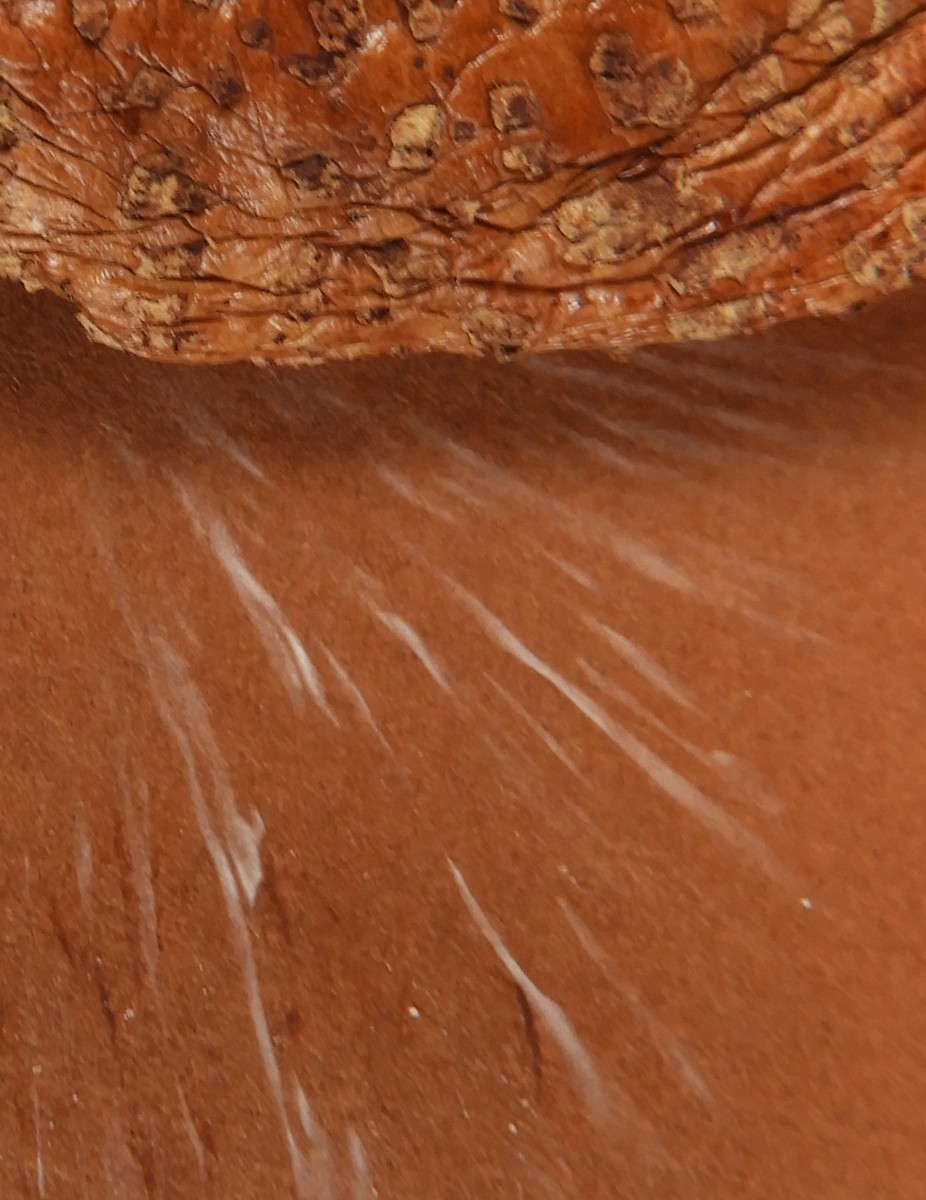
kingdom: Fungi
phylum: Basidiomycota
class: Agaricomycetes
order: Agaricales
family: Amanitaceae
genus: Amanita
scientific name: Amanita rubescens
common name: rødmende fluesvamp
